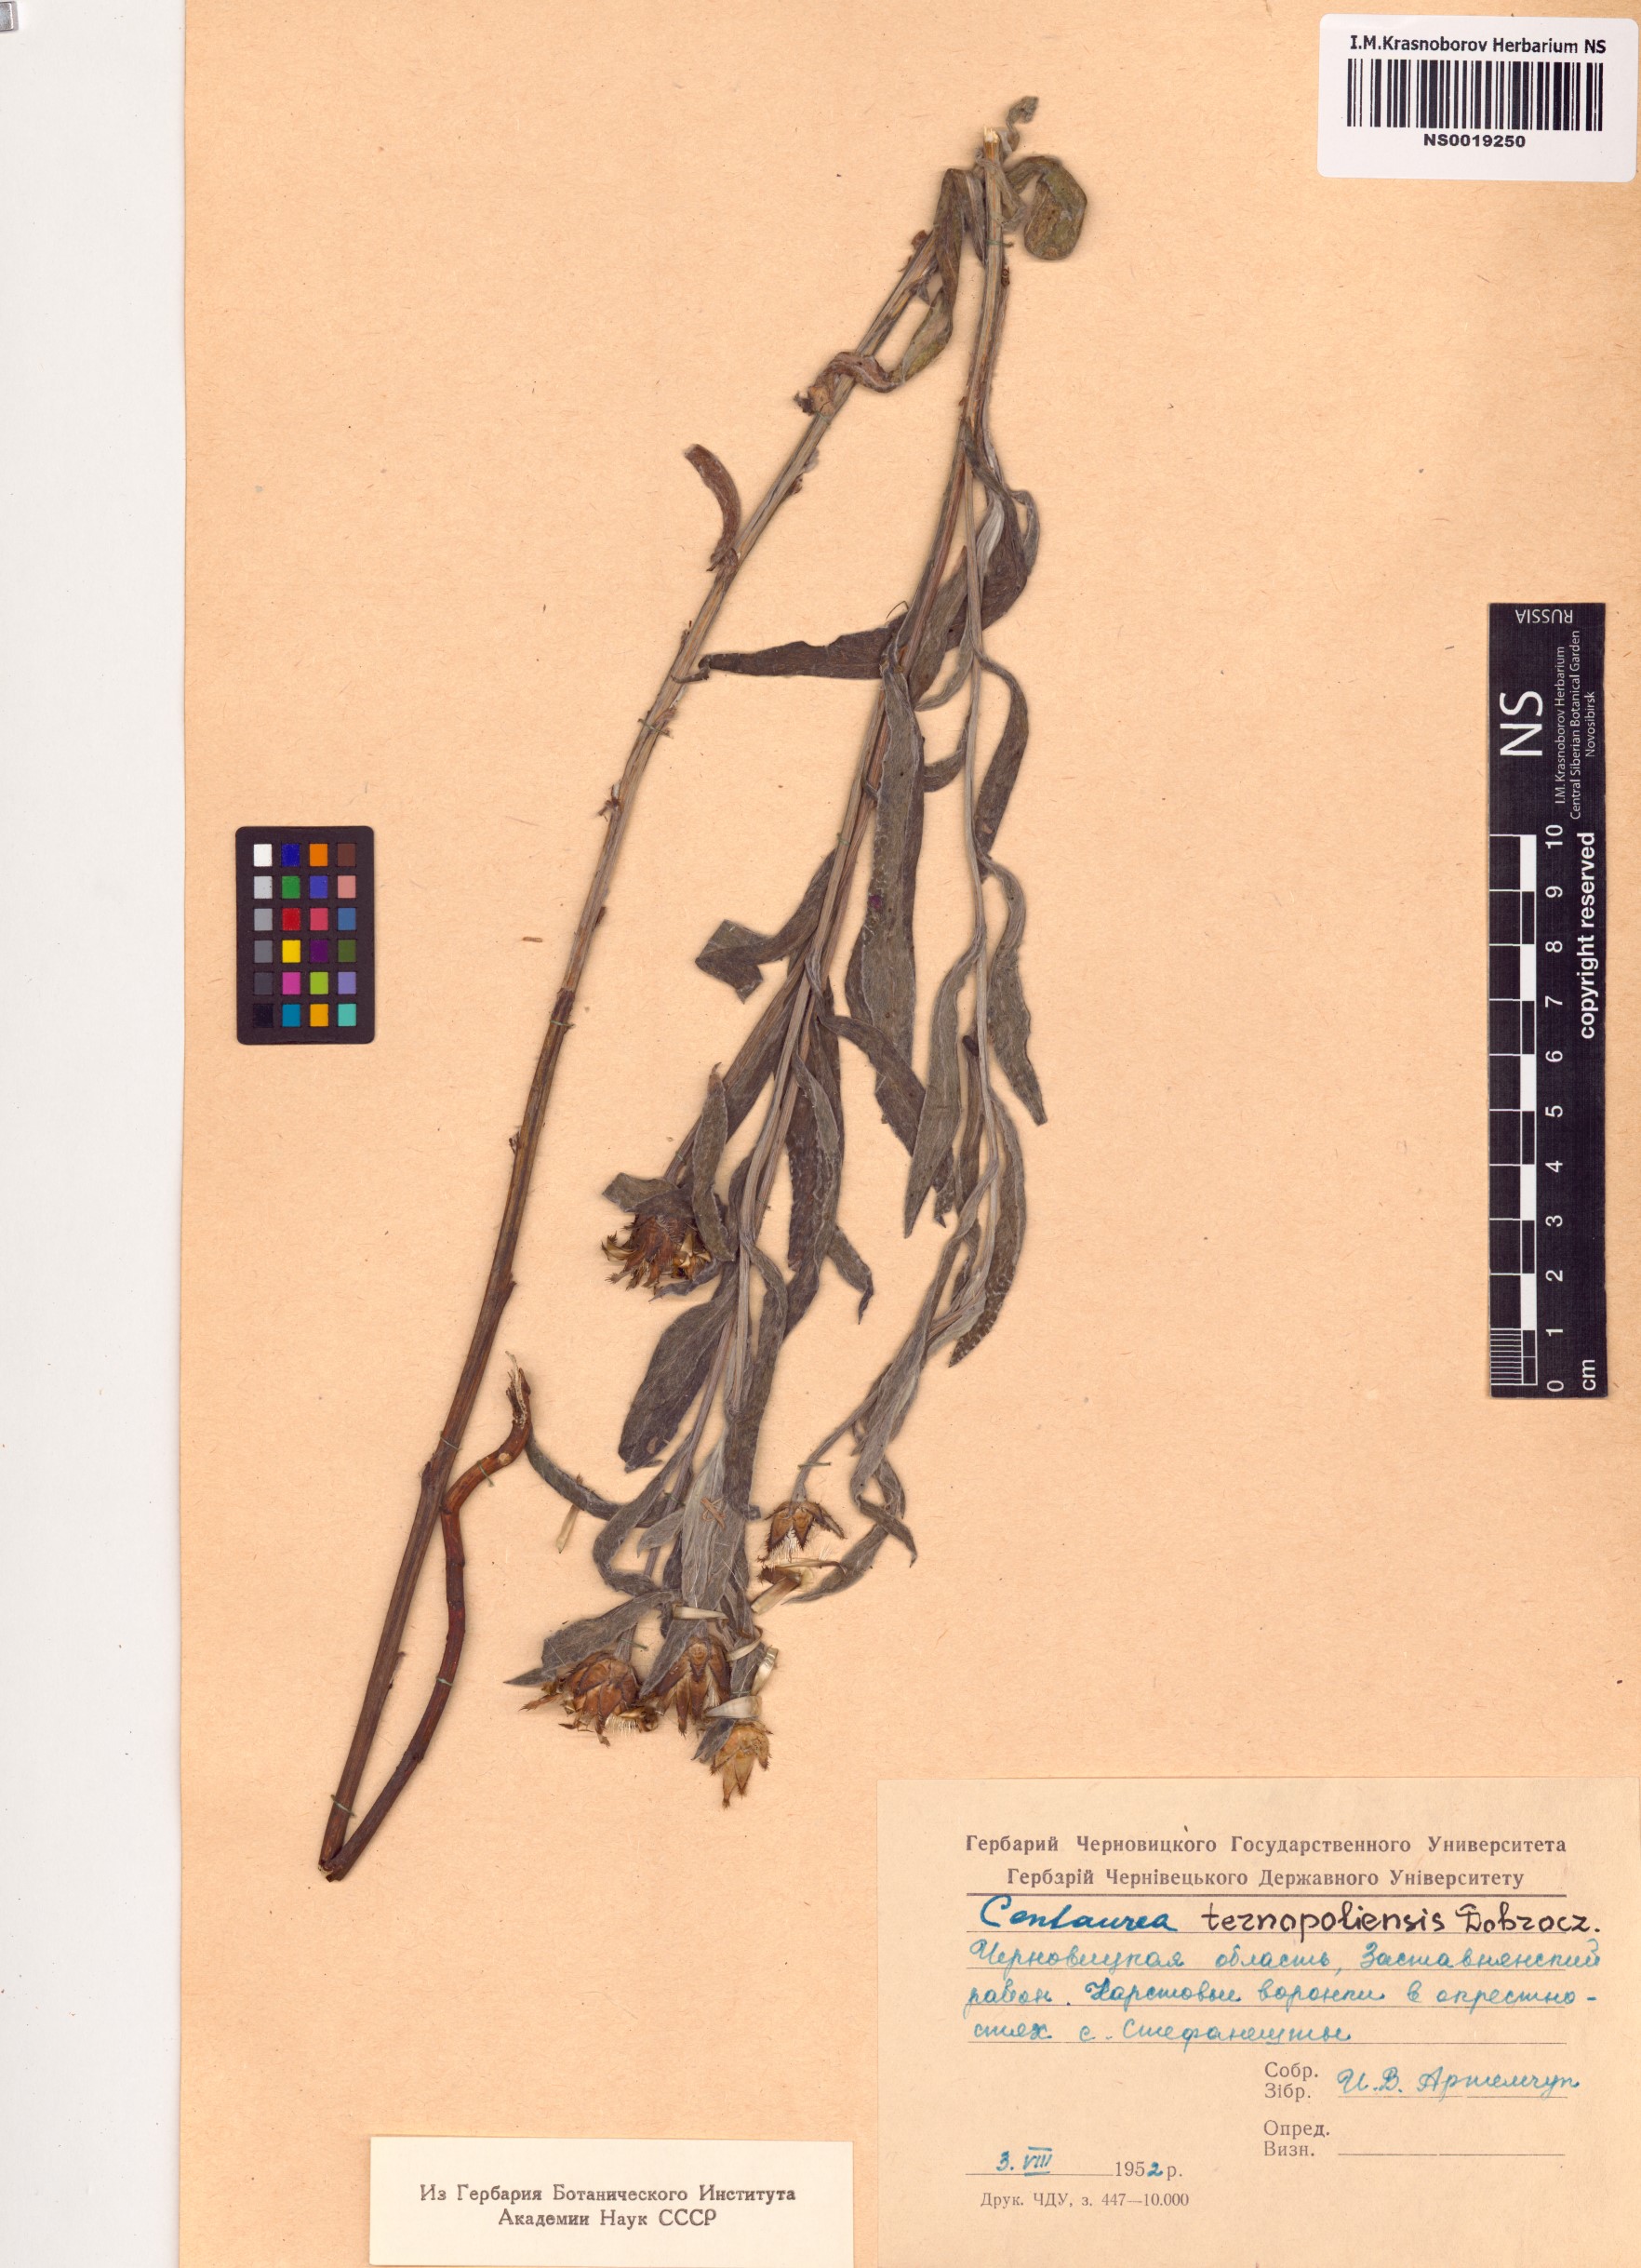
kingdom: Plantae
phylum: Tracheophyta
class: Magnoliopsida
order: Asterales
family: Asteraceae
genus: Centaurea
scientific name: Centaurea stricta
